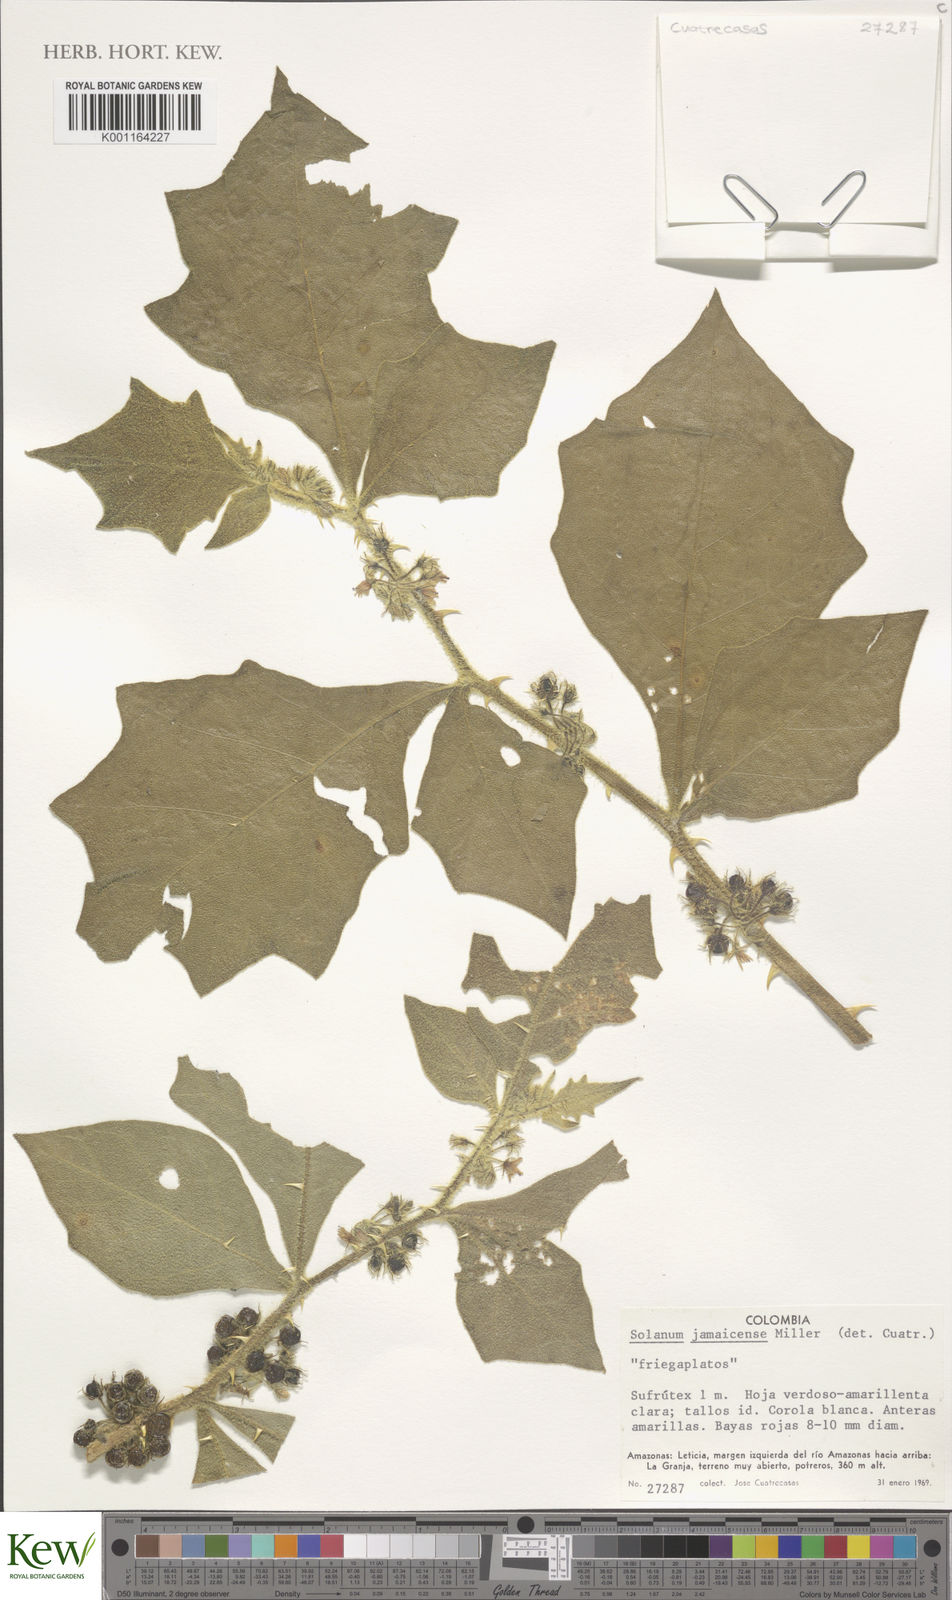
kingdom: Plantae
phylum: Tracheophyta
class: Magnoliopsida
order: Solanales
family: Solanaceae
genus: Solanum
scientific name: Solanum jamaicense
